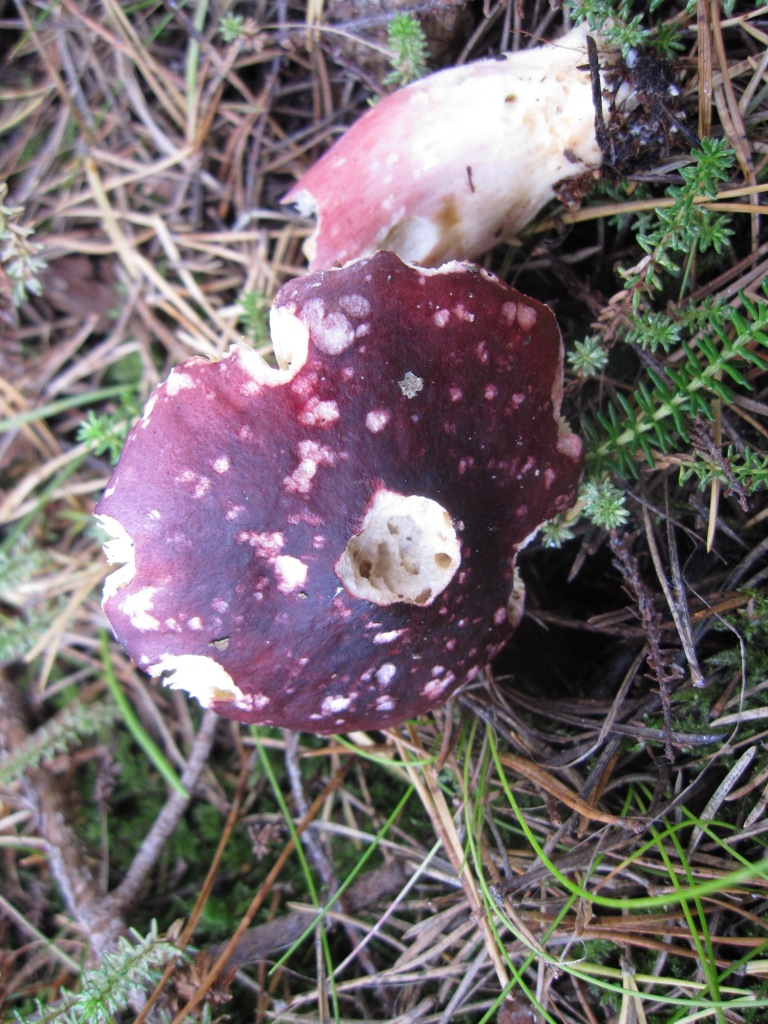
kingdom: Fungi
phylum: Basidiomycota
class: Agaricomycetes
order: Russulales
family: Russulaceae
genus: Russula
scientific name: Russula sardonia
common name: citronbladet skørhat
